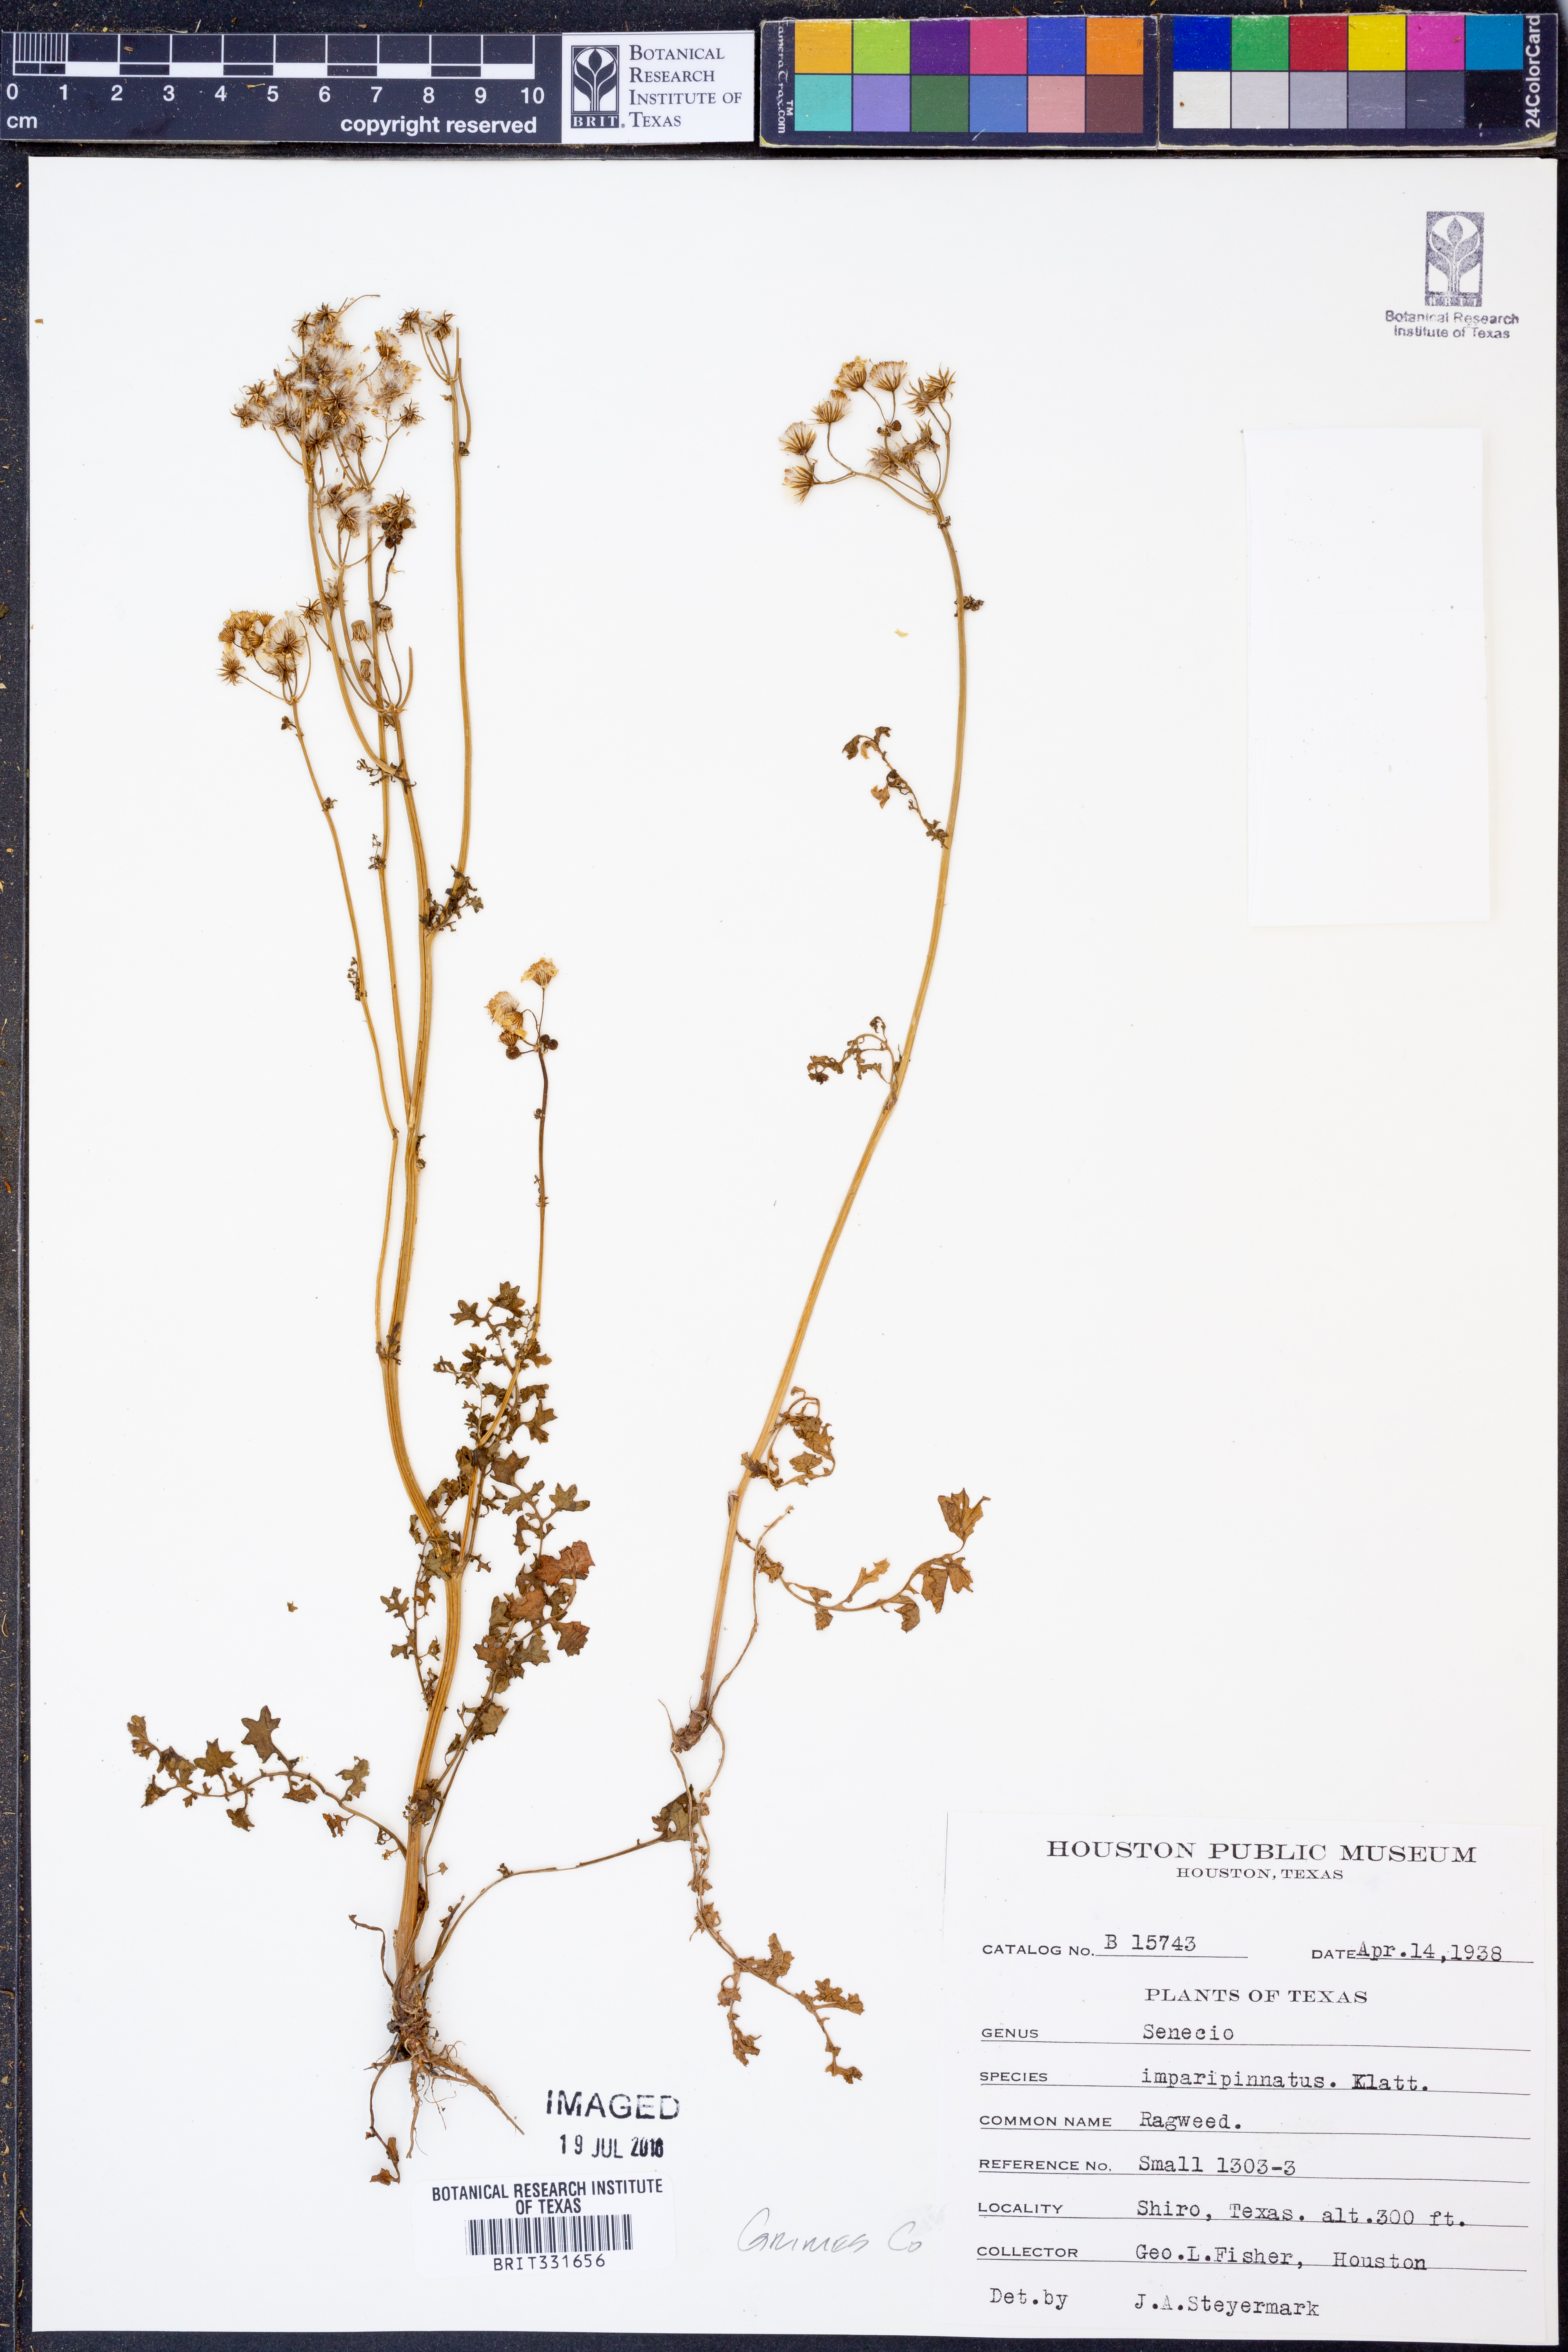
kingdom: Plantae
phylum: Tracheophyta
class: Magnoliopsida
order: Asterales
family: Asteraceae
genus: Packera
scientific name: Packera tampicana
